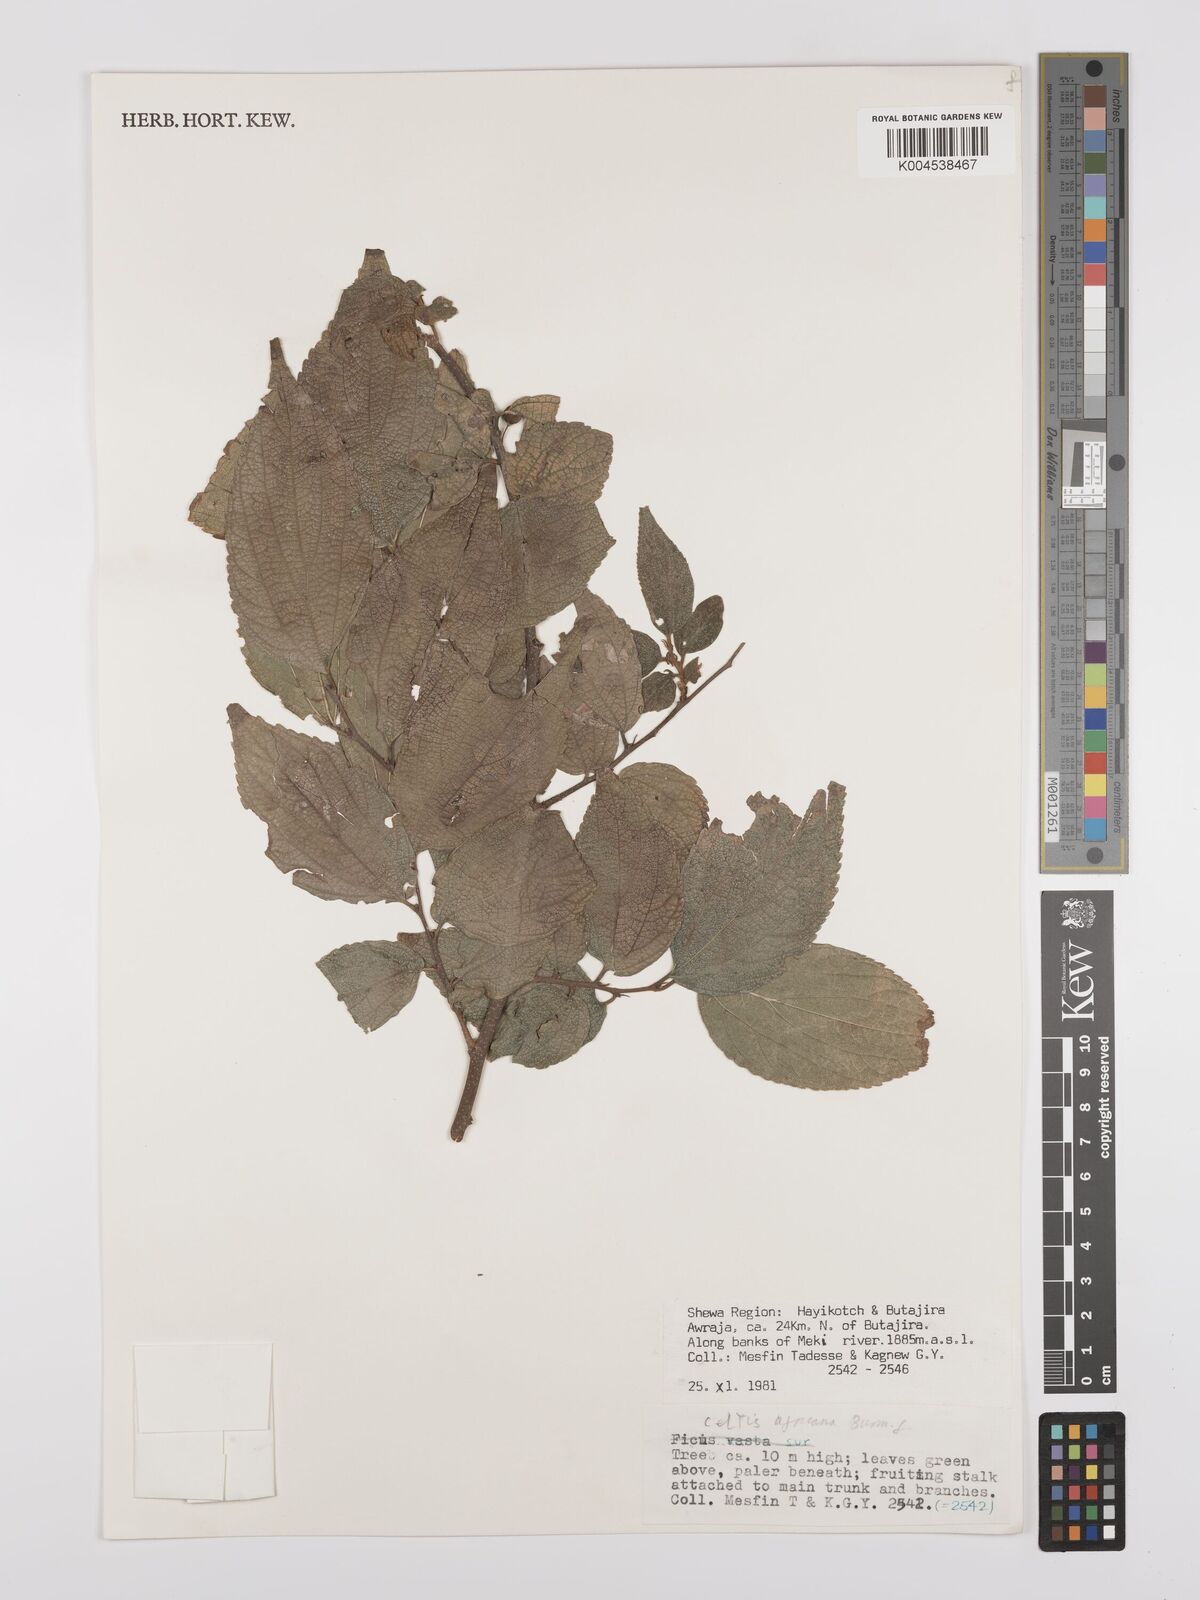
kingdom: Plantae
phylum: Tracheophyta
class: Magnoliopsida
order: Rosales
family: Cannabaceae
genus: Celtis
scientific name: Celtis africana
